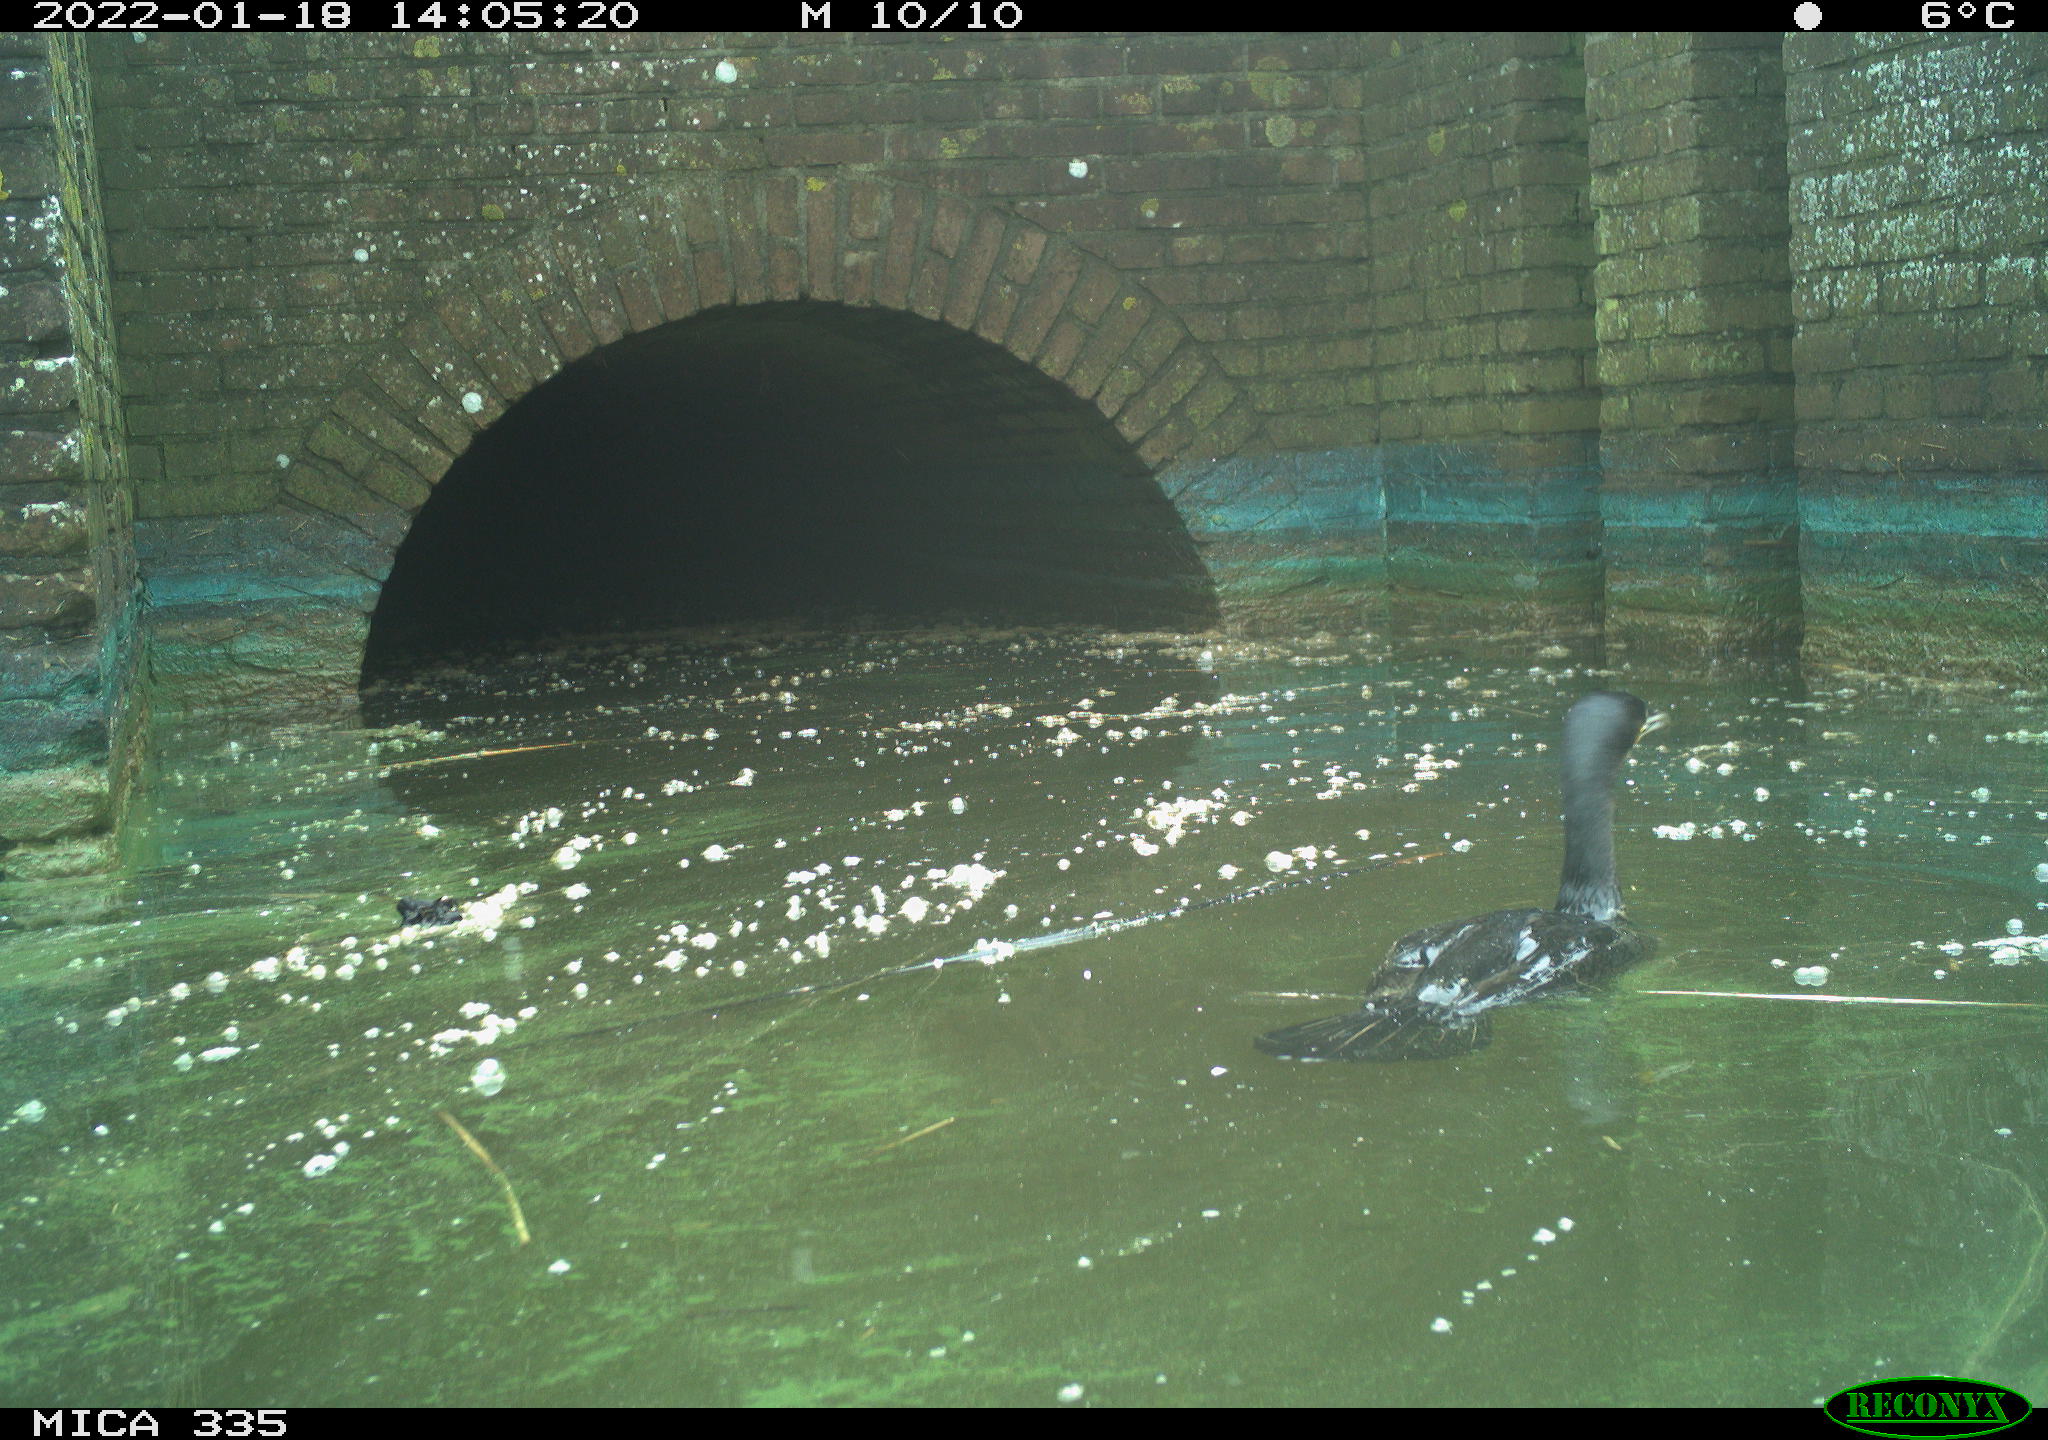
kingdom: Animalia
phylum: Chordata
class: Aves
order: Suliformes
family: Phalacrocoracidae
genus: Phalacrocorax
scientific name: Phalacrocorax carbo
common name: Great cormorant
